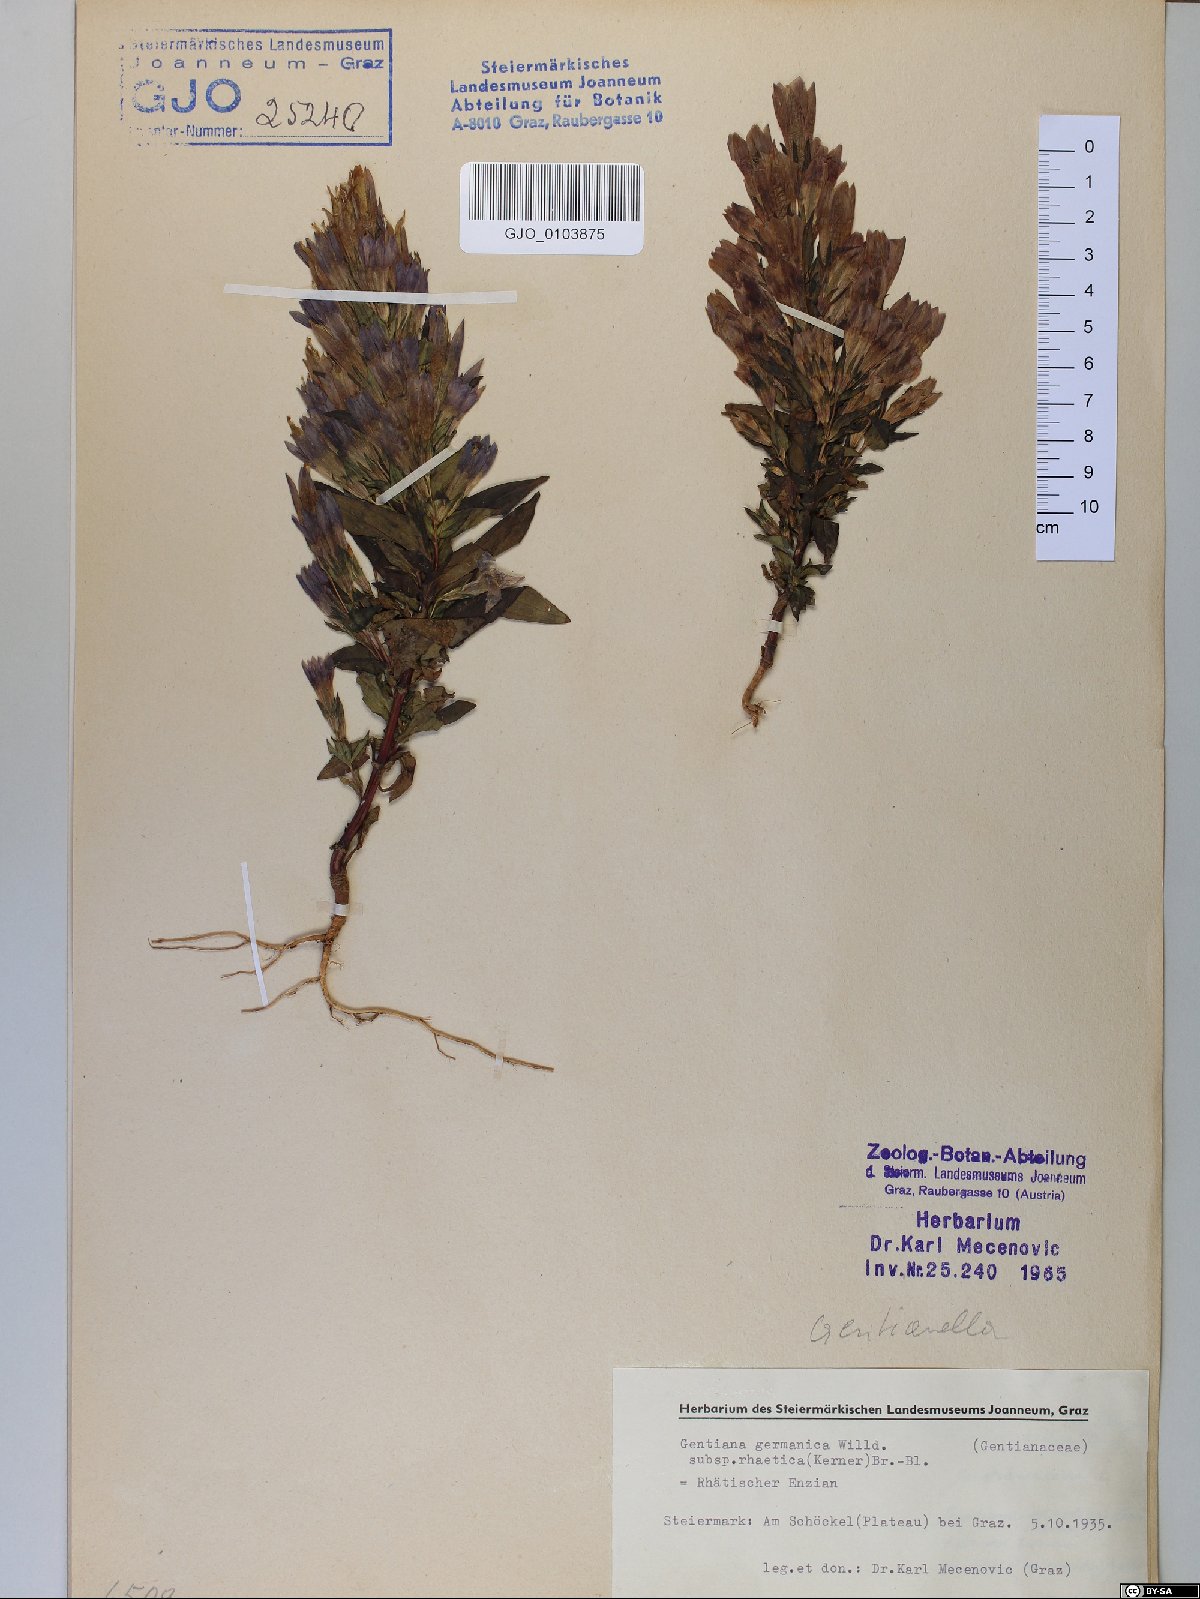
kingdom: Plantae
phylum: Tracheophyta
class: Magnoliopsida
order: Gentianales
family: Gentianaceae
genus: Gentianella
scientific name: Gentianella rhaetica
